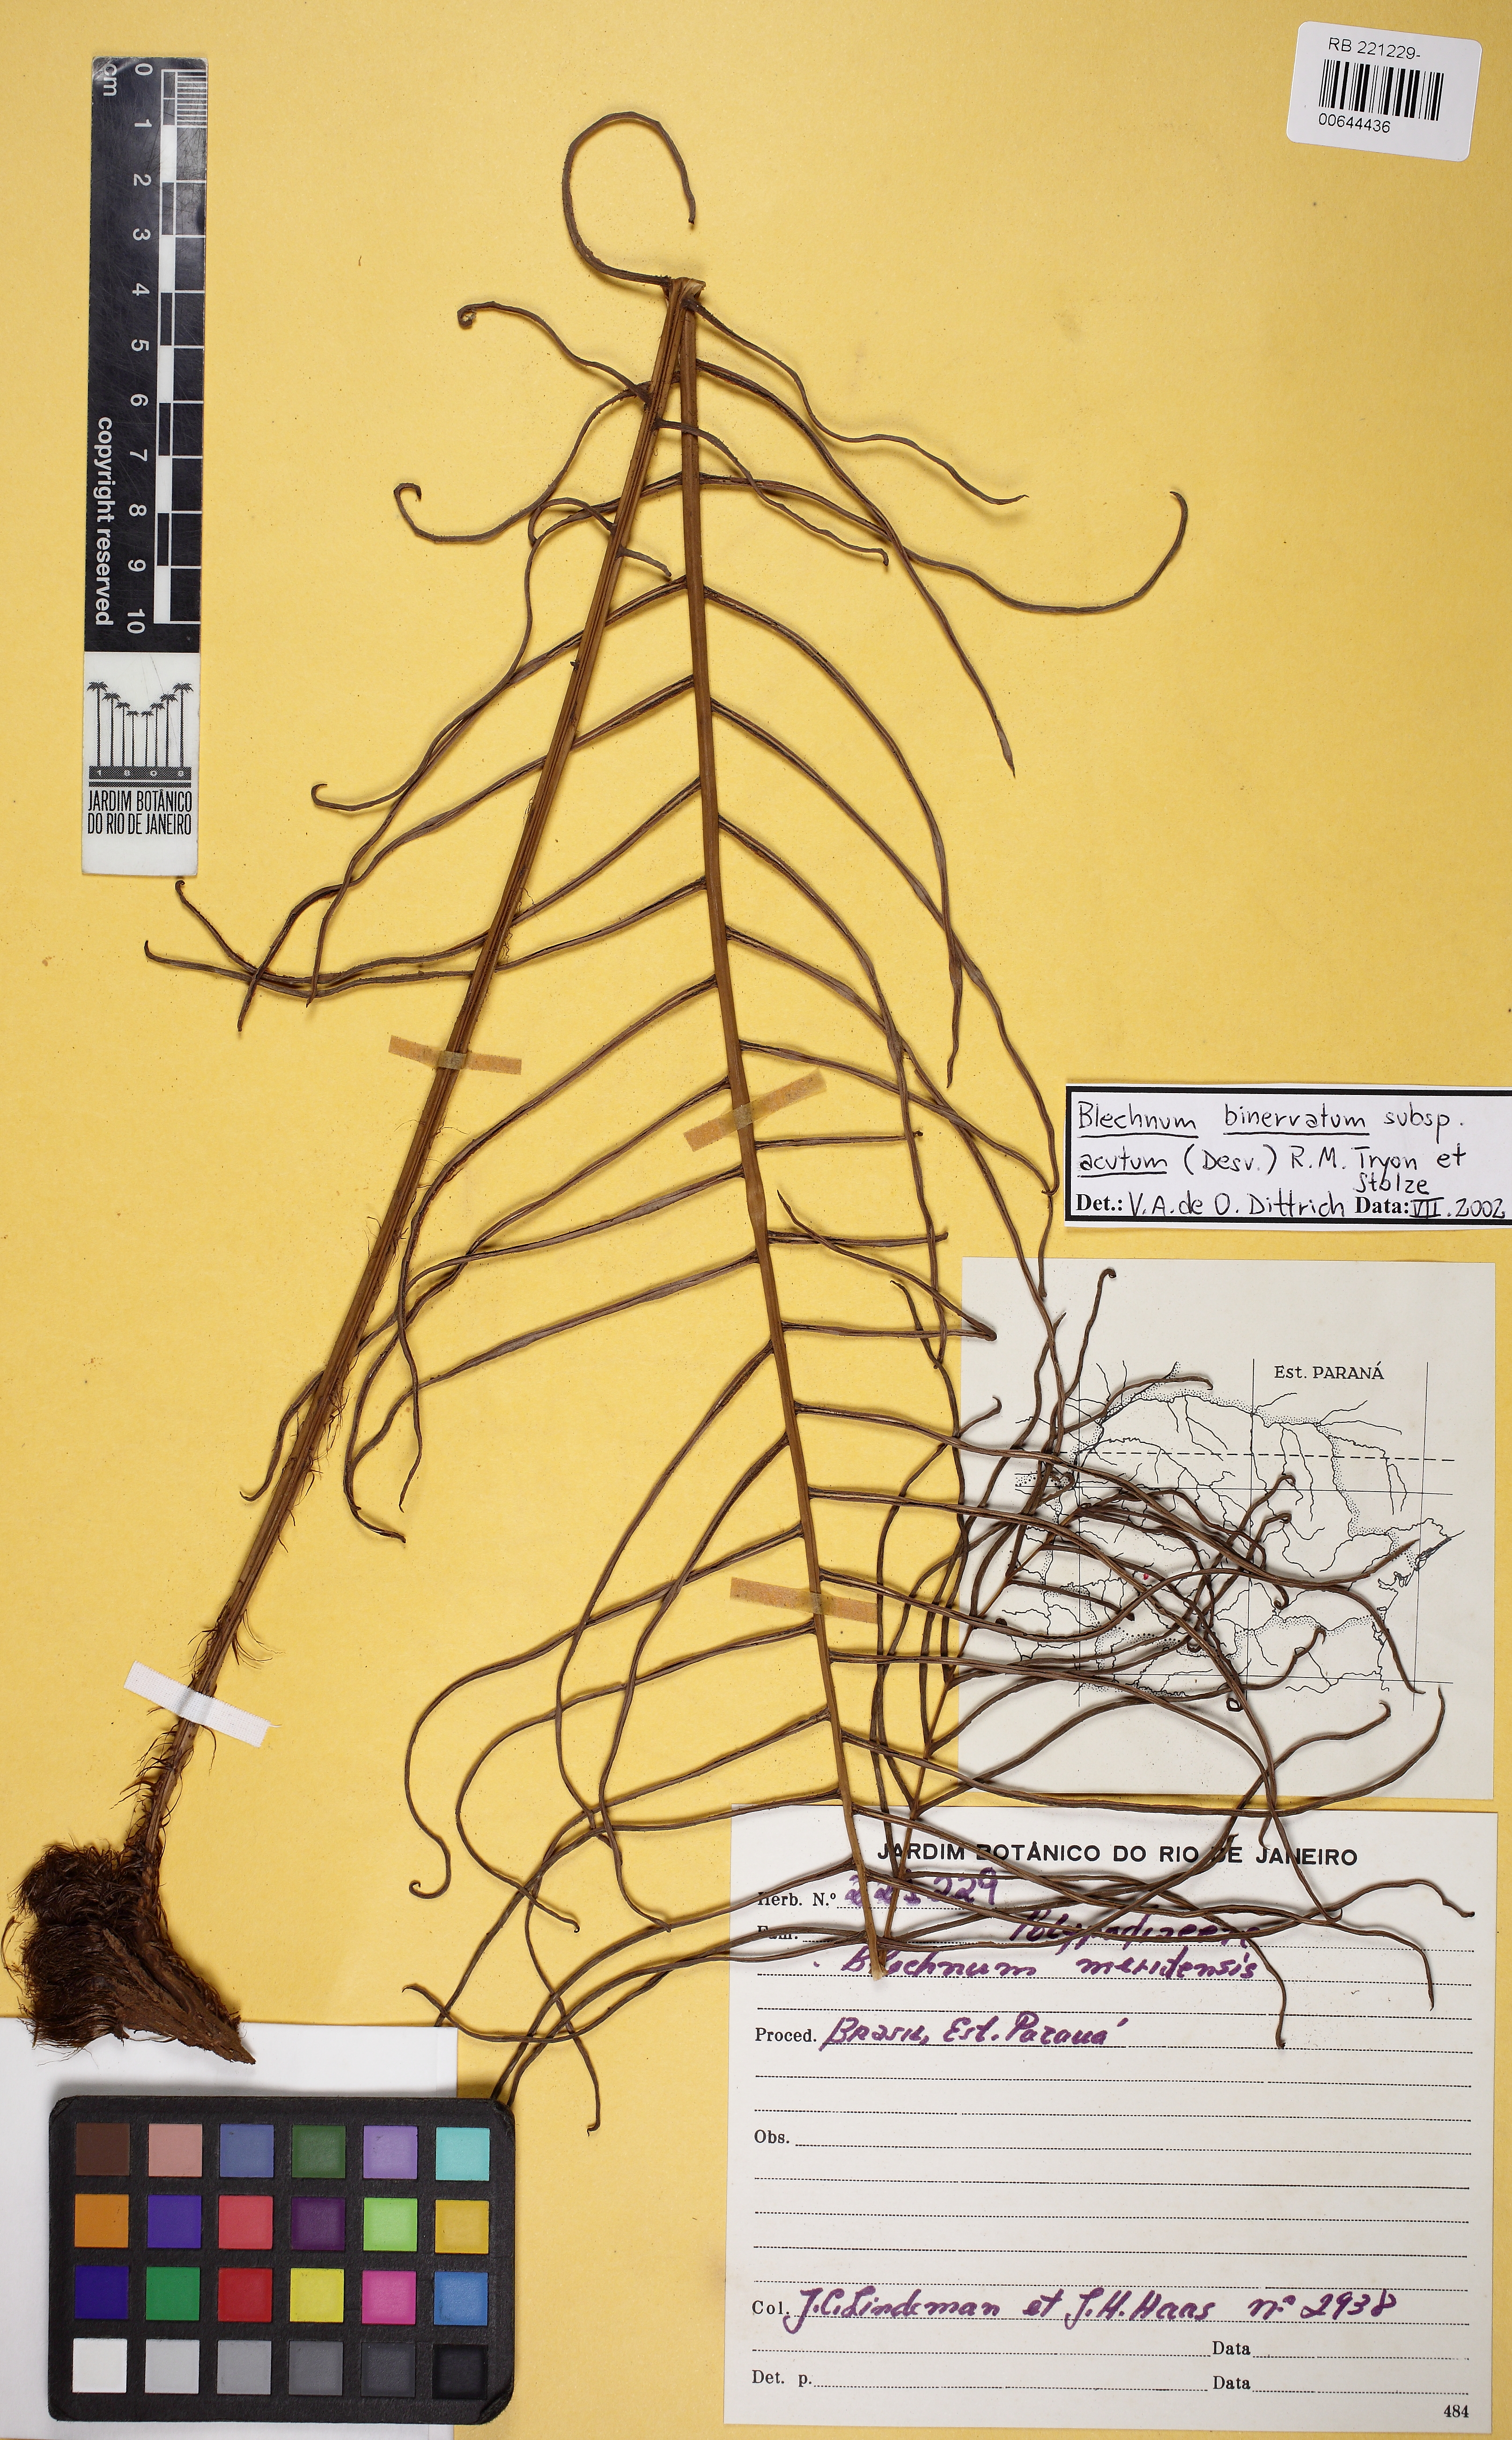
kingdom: Plantae
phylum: Tracheophyta
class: Polypodiopsida
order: Polypodiales
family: Blechnaceae
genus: Lomaridium
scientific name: Lomaridium acutum
